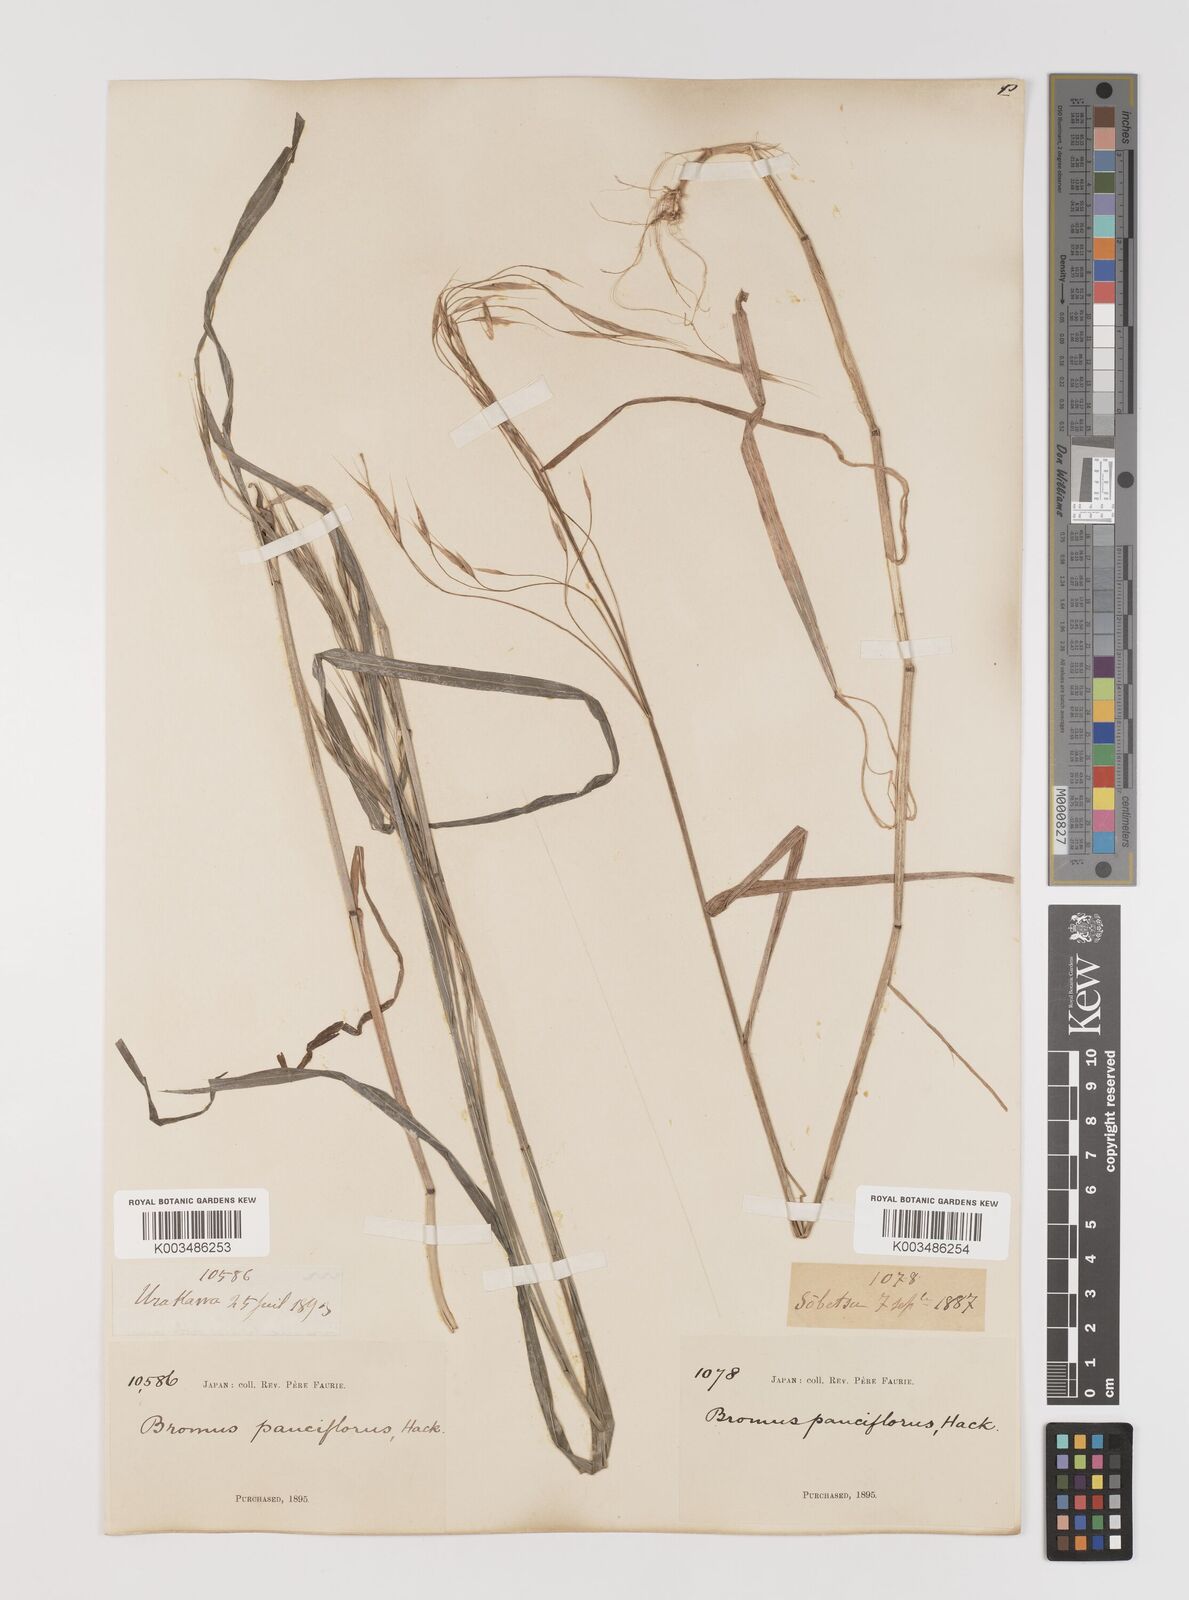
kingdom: Plantae
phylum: Tracheophyta
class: Liliopsida
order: Poales
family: Poaceae
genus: Bromus
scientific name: Bromus remotiflorus
